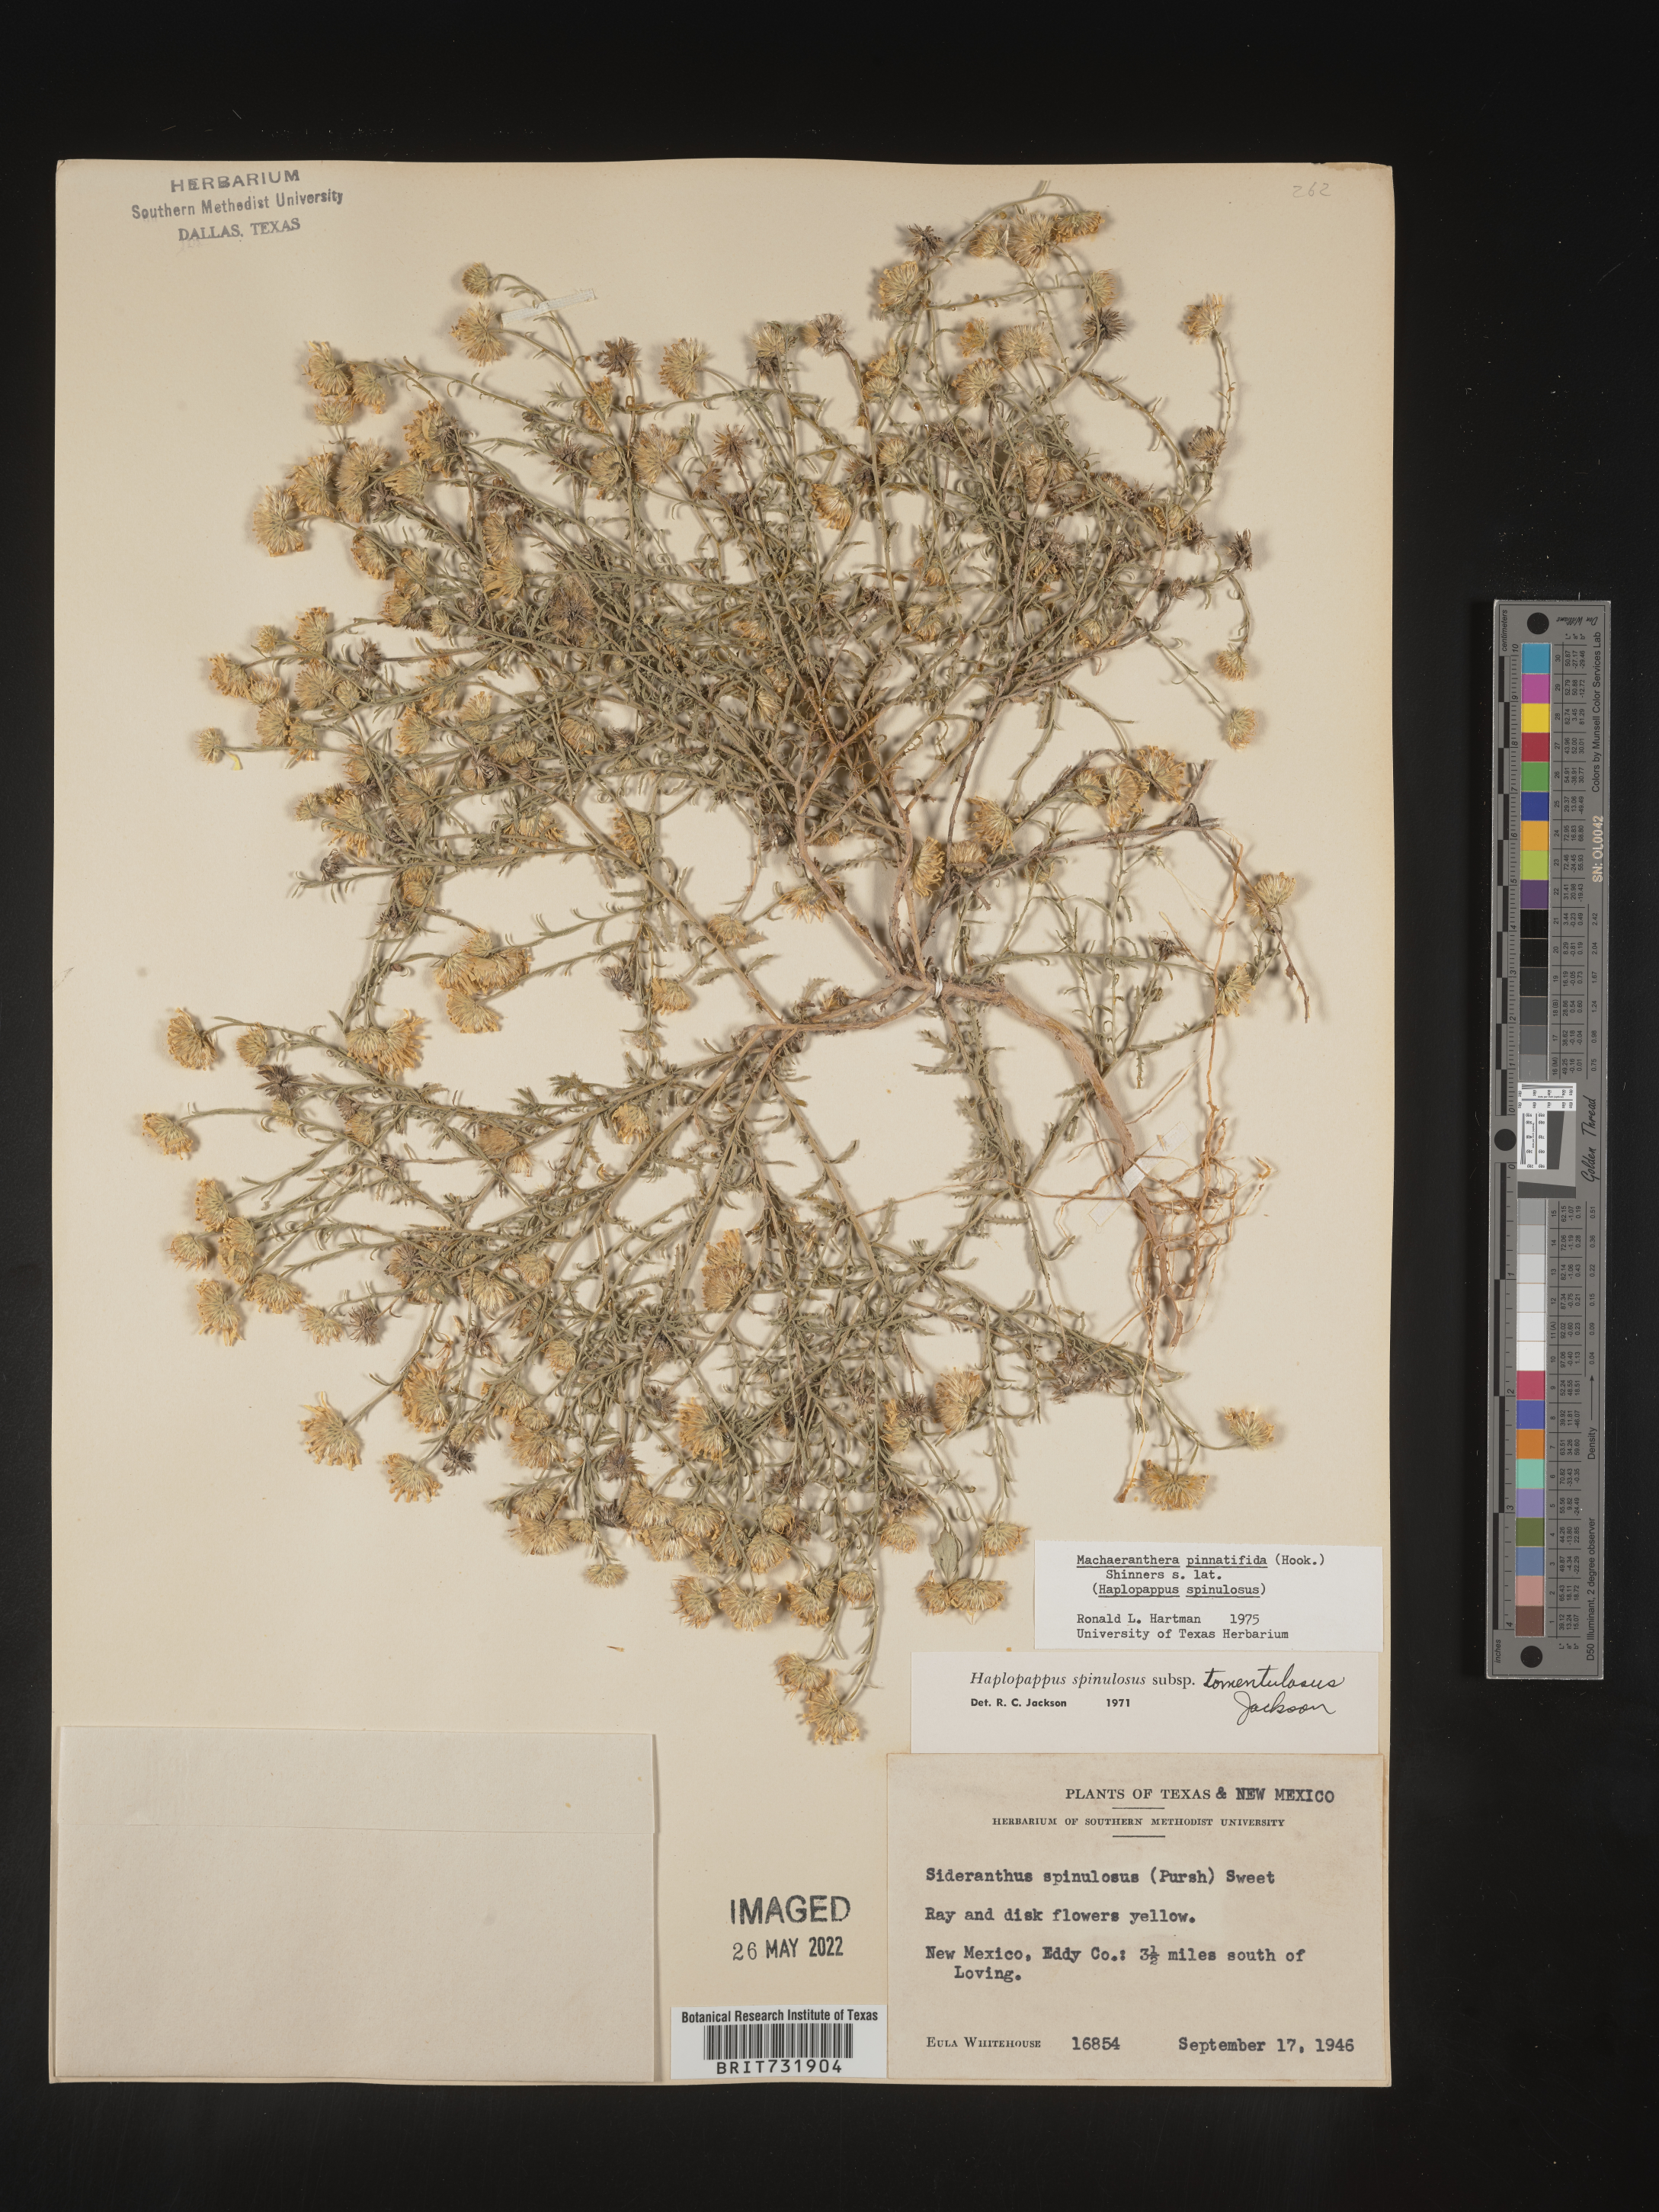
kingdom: Plantae
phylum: Tracheophyta
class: Magnoliopsida
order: Asterales
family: Asteraceae
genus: Xanthisma
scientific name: Xanthisma spinulosum
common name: Spiny goldenweed
